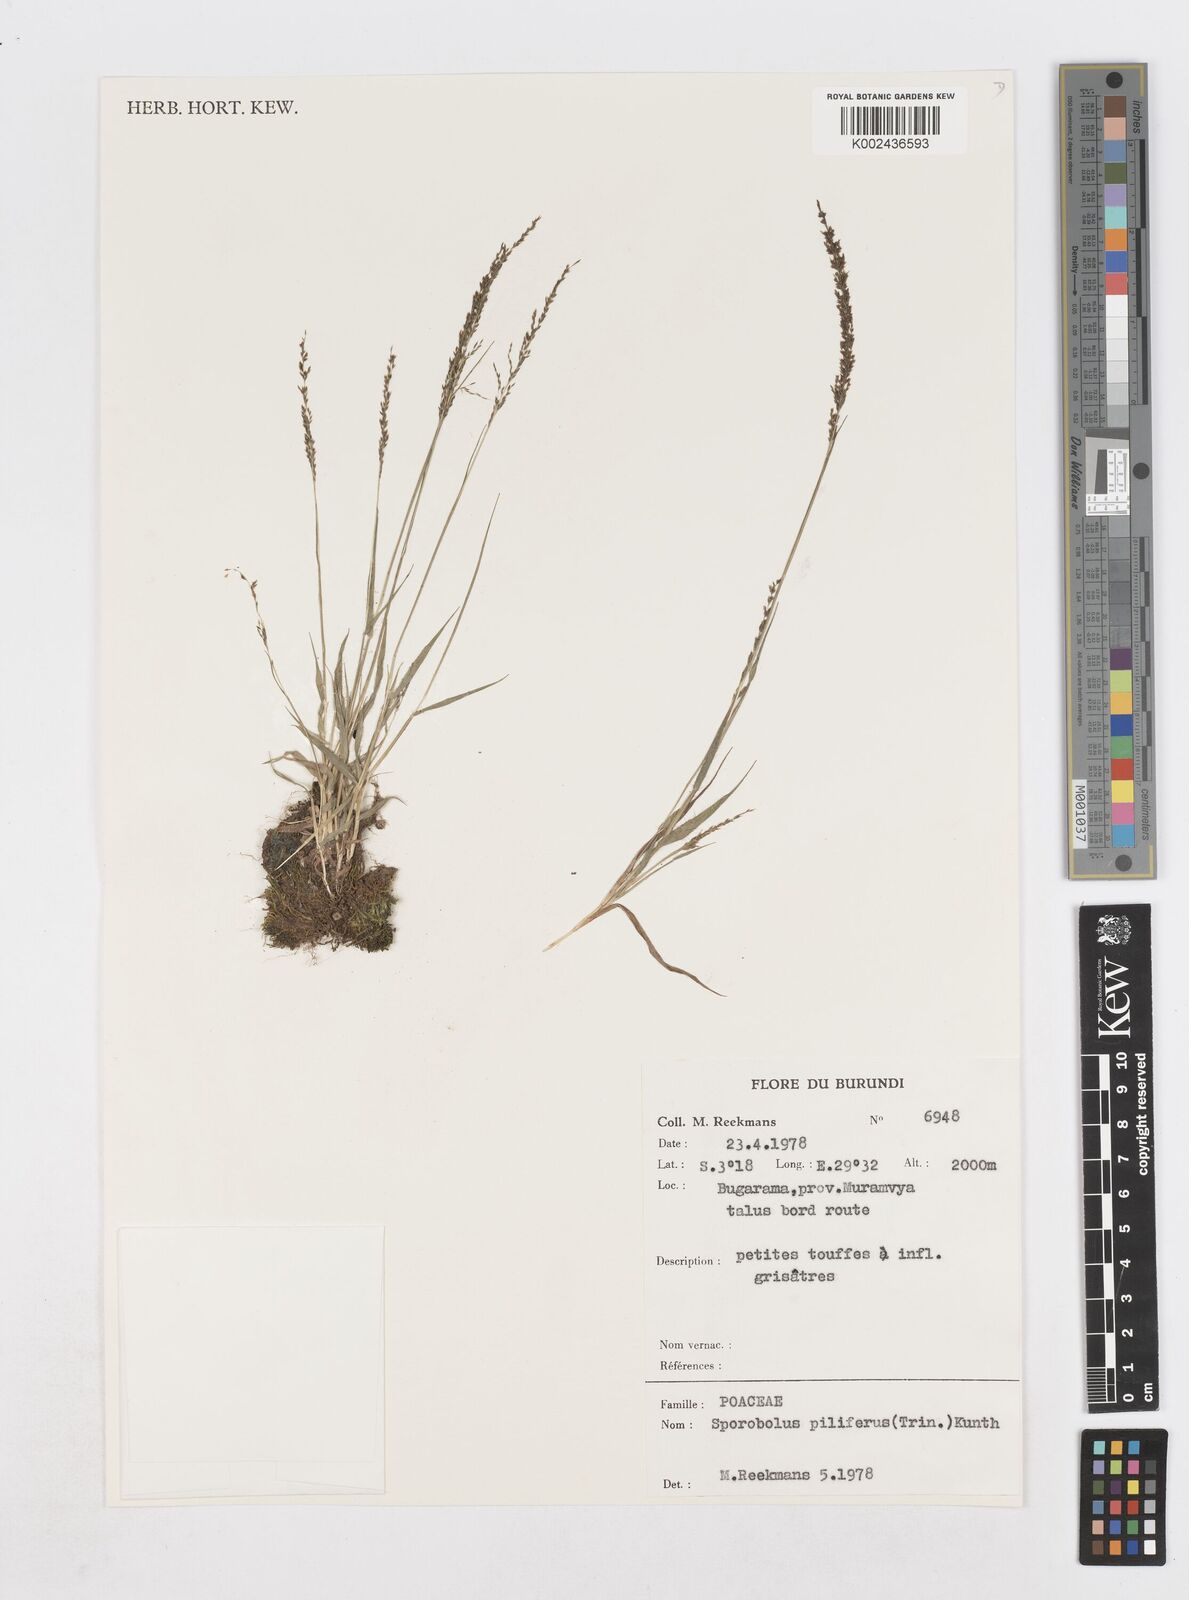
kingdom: Plantae
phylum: Tracheophyta
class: Liliopsida
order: Poales
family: Poaceae
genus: Sporobolus
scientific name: Sporobolus pilifer
